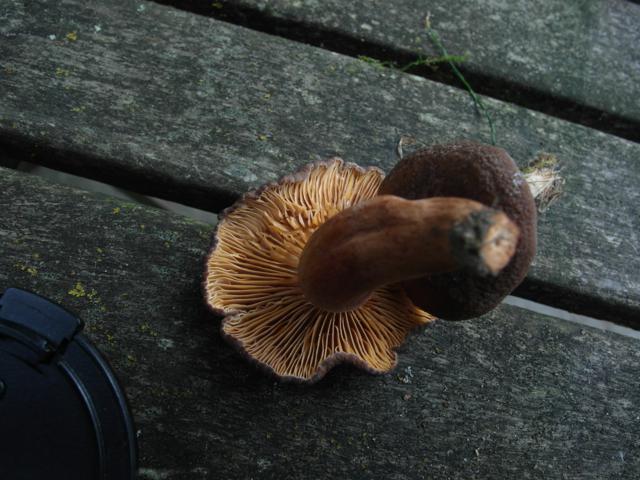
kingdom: Fungi
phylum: Basidiomycota
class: Agaricomycetes
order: Russulales
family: Russulaceae
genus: Lactarius
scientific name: Lactarius serifluus
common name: tæge-mælkehat
